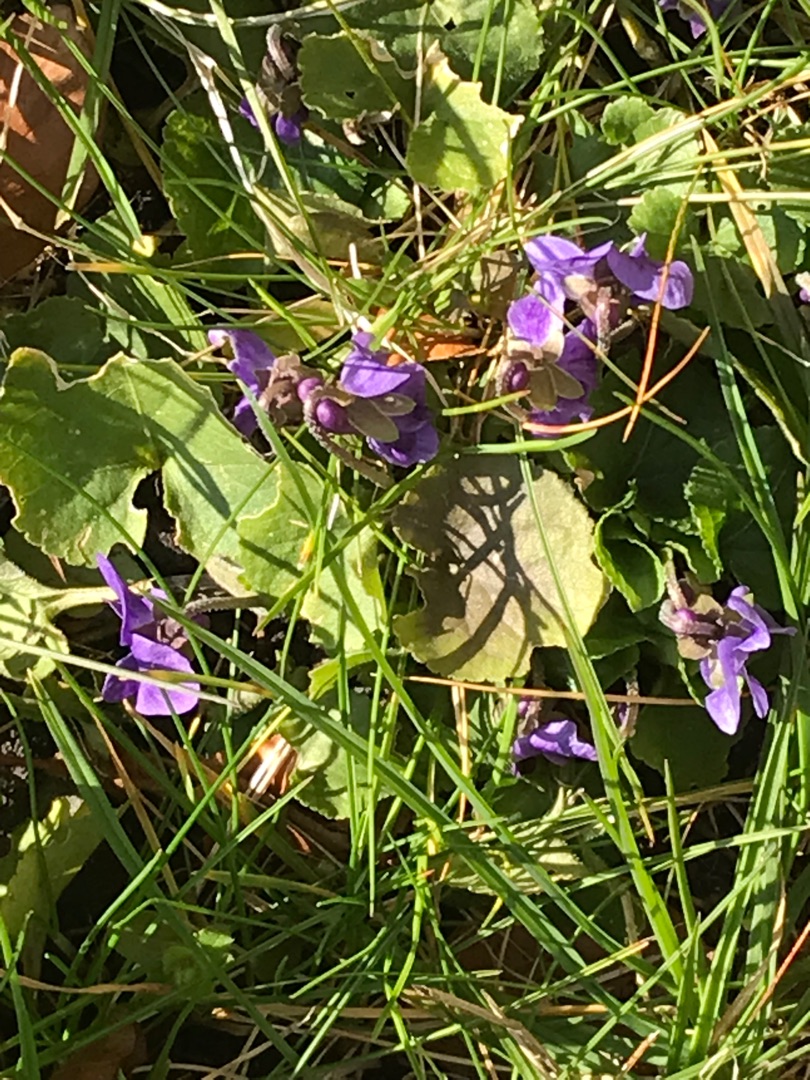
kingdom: Plantae
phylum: Tracheophyta
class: Magnoliopsida
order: Malpighiales
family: Violaceae
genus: Viola
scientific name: Viola odorata
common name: Marts-viol
